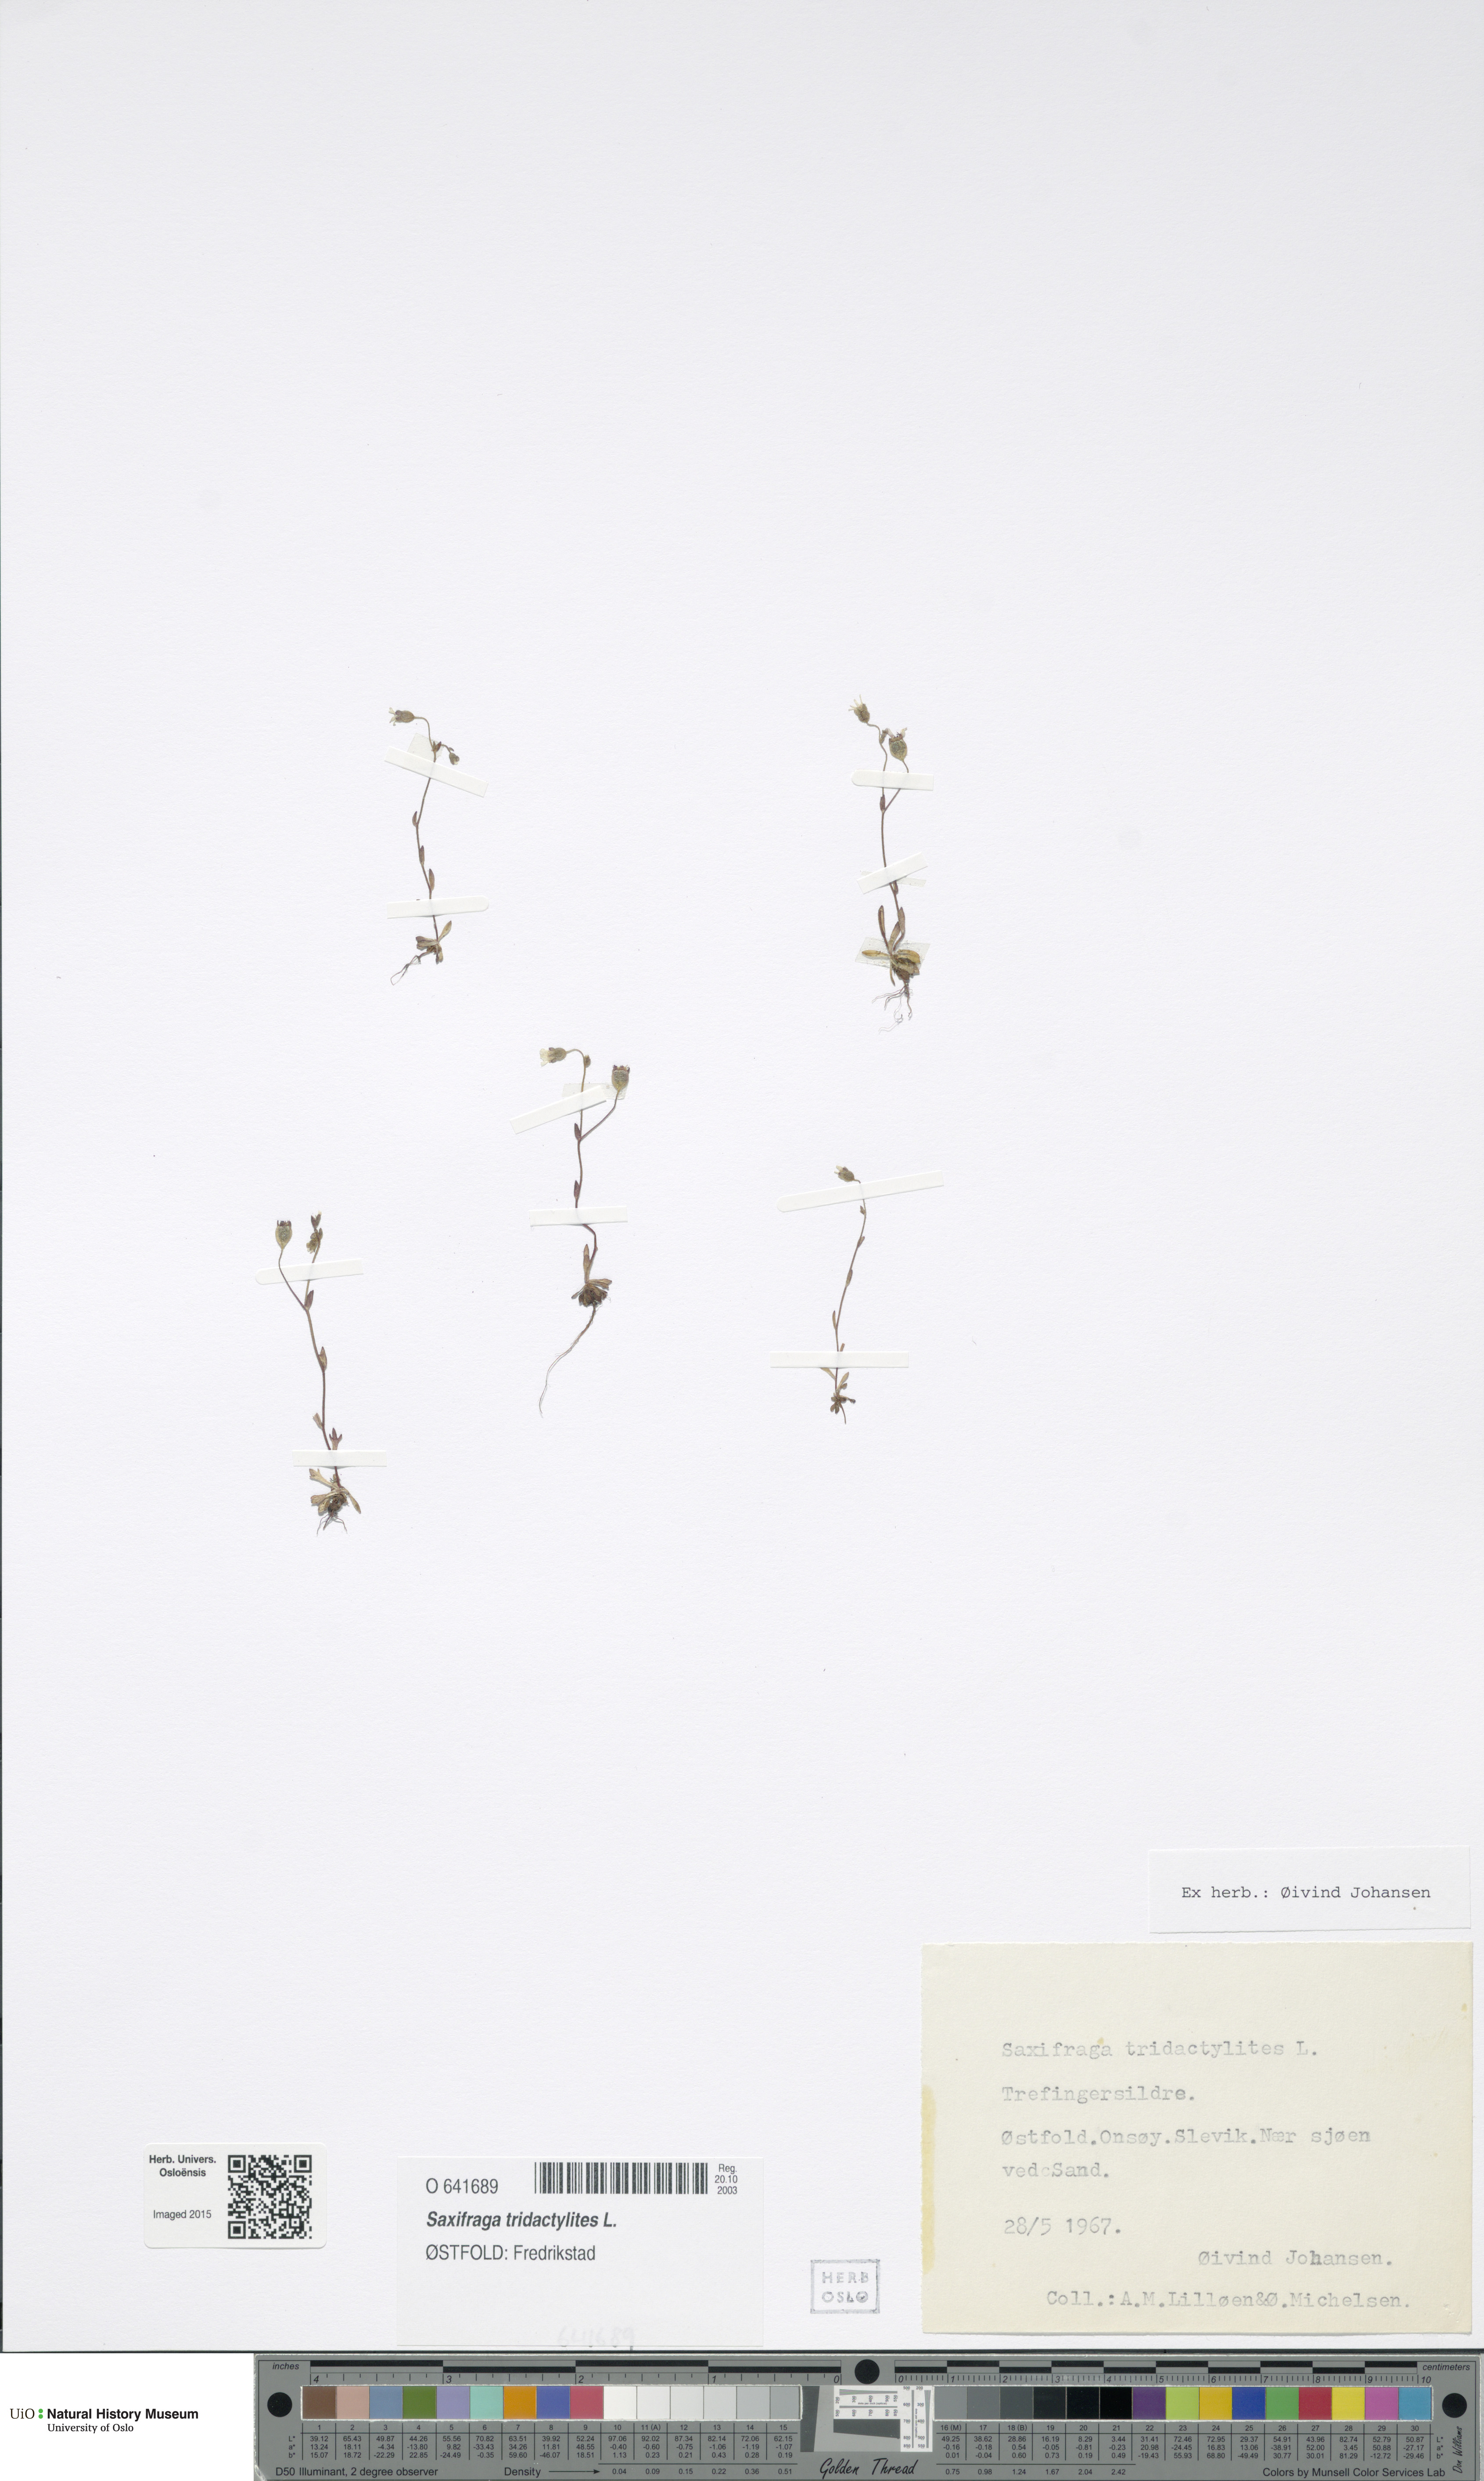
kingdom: Plantae
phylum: Tracheophyta
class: Magnoliopsida
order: Saxifragales
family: Saxifragaceae
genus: Saxifraga
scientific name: Saxifraga tridactylites
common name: Rue-leaved saxifrage
